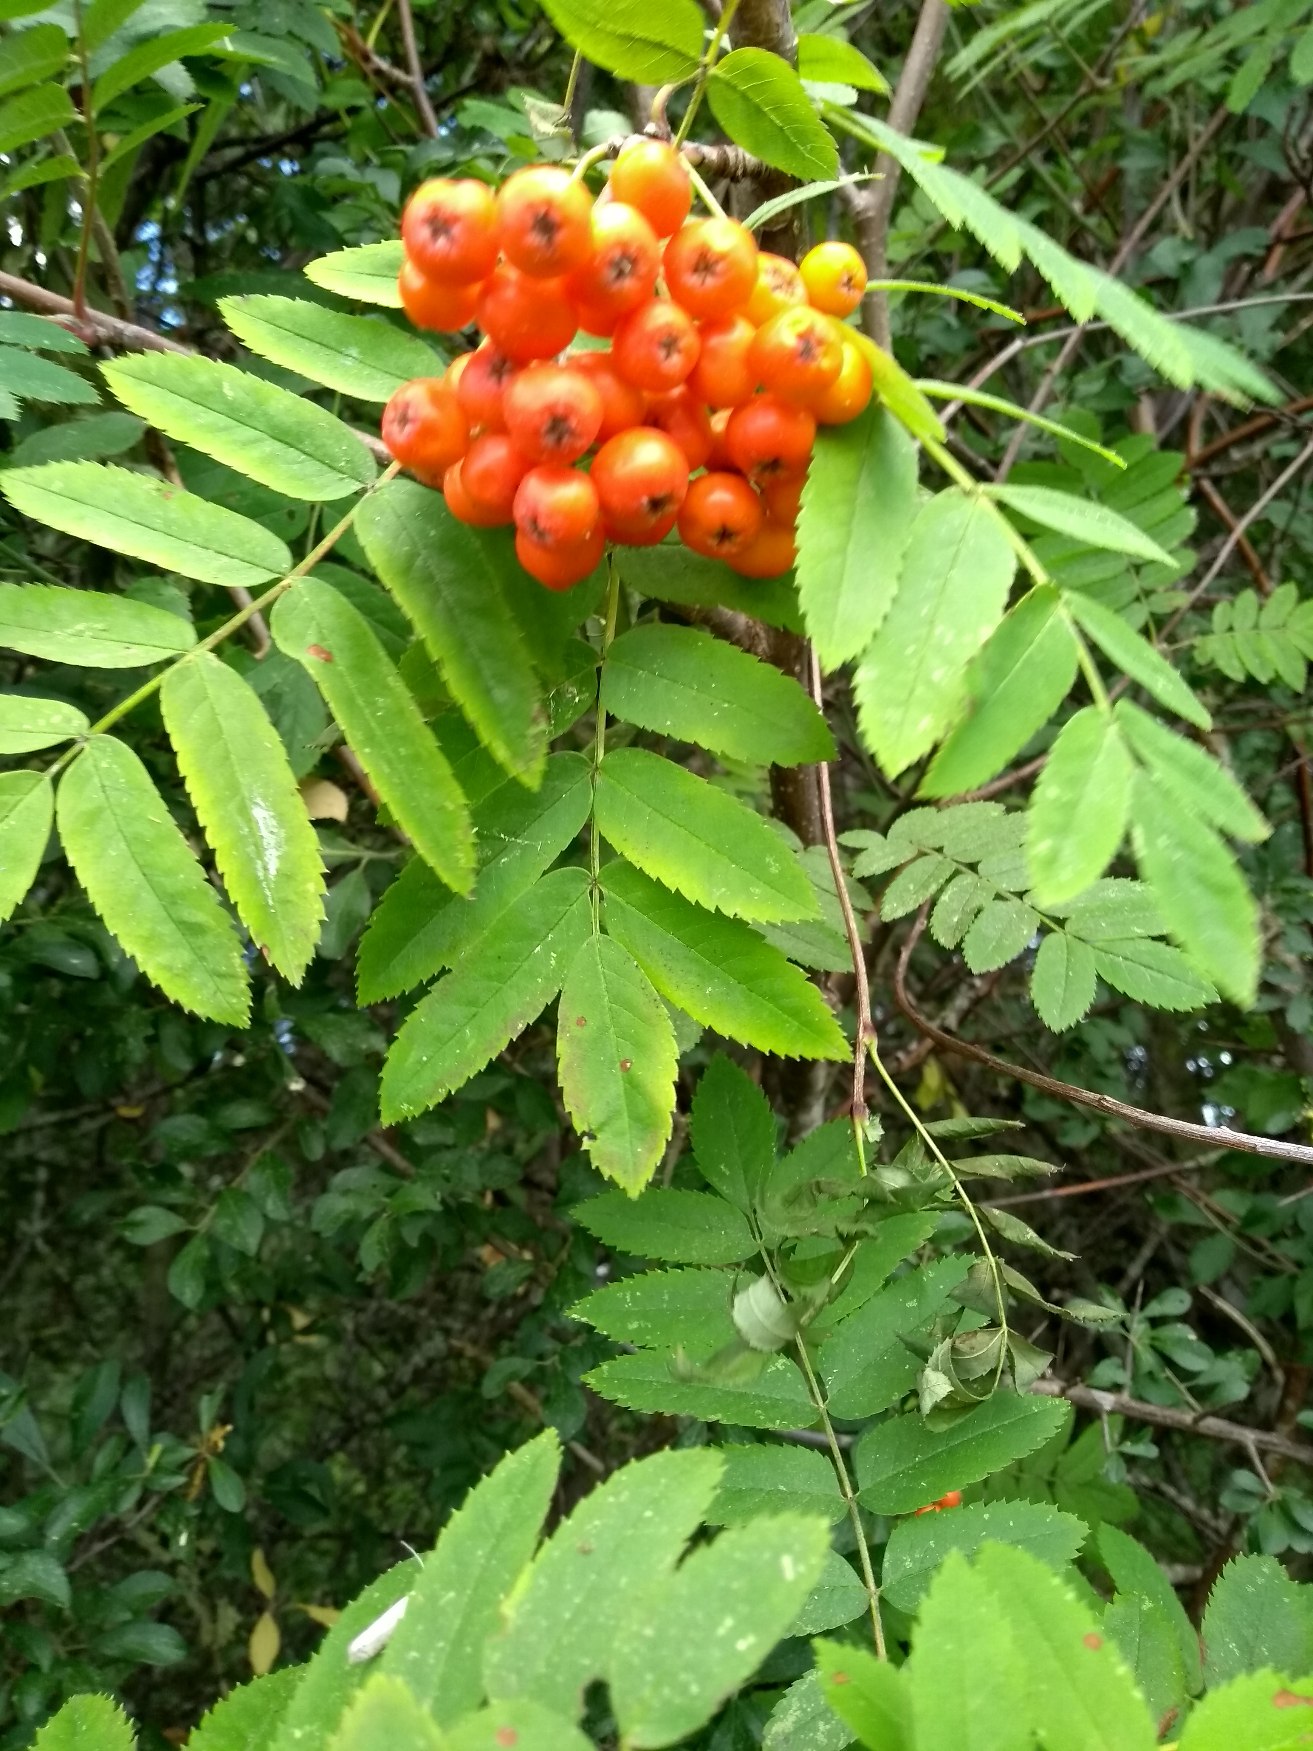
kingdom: Plantae
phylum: Tracheophyta
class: Magnoliopsida
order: Rosales
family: Rosaceae
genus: Sorbus
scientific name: Sorbus aucuparia
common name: Almindelig røn
